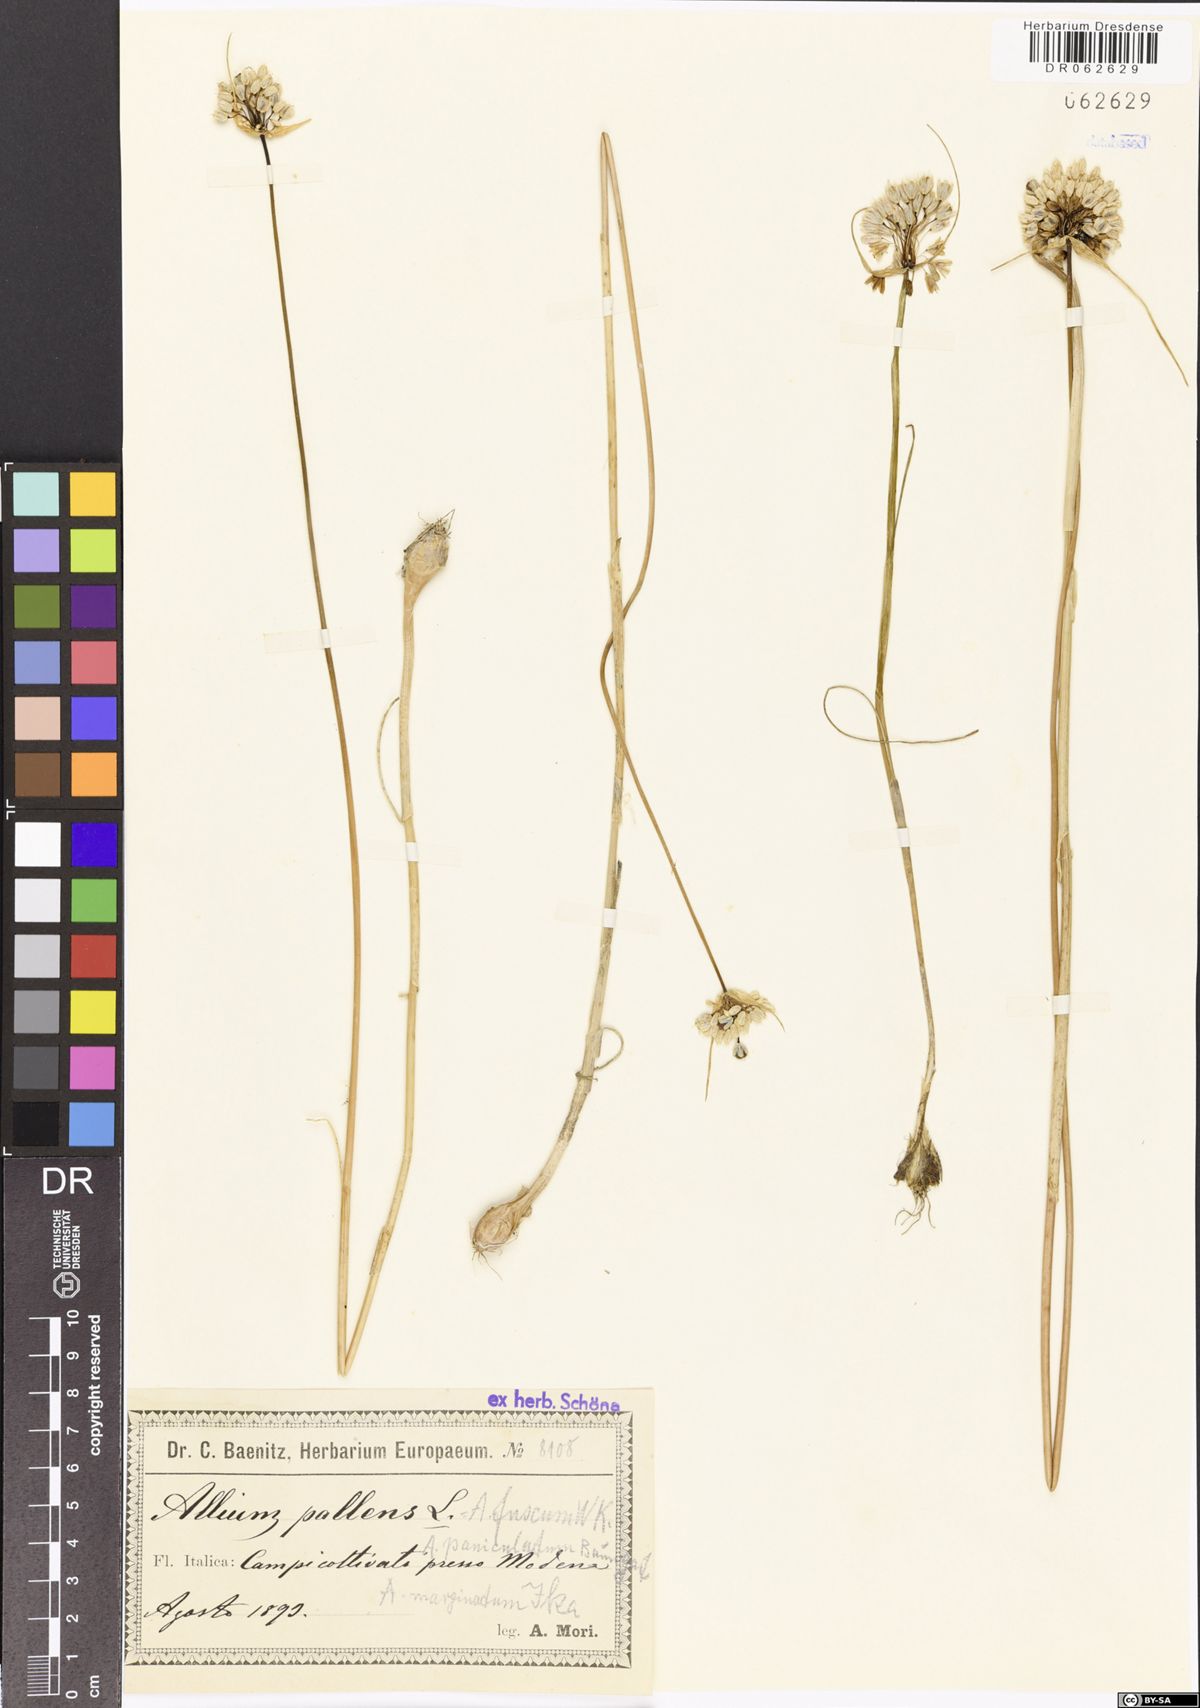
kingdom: Plantae
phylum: Tracheophyta
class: Liliopsida
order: Asparagales
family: Amaryllidaceae
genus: Allium
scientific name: Allium pallens
